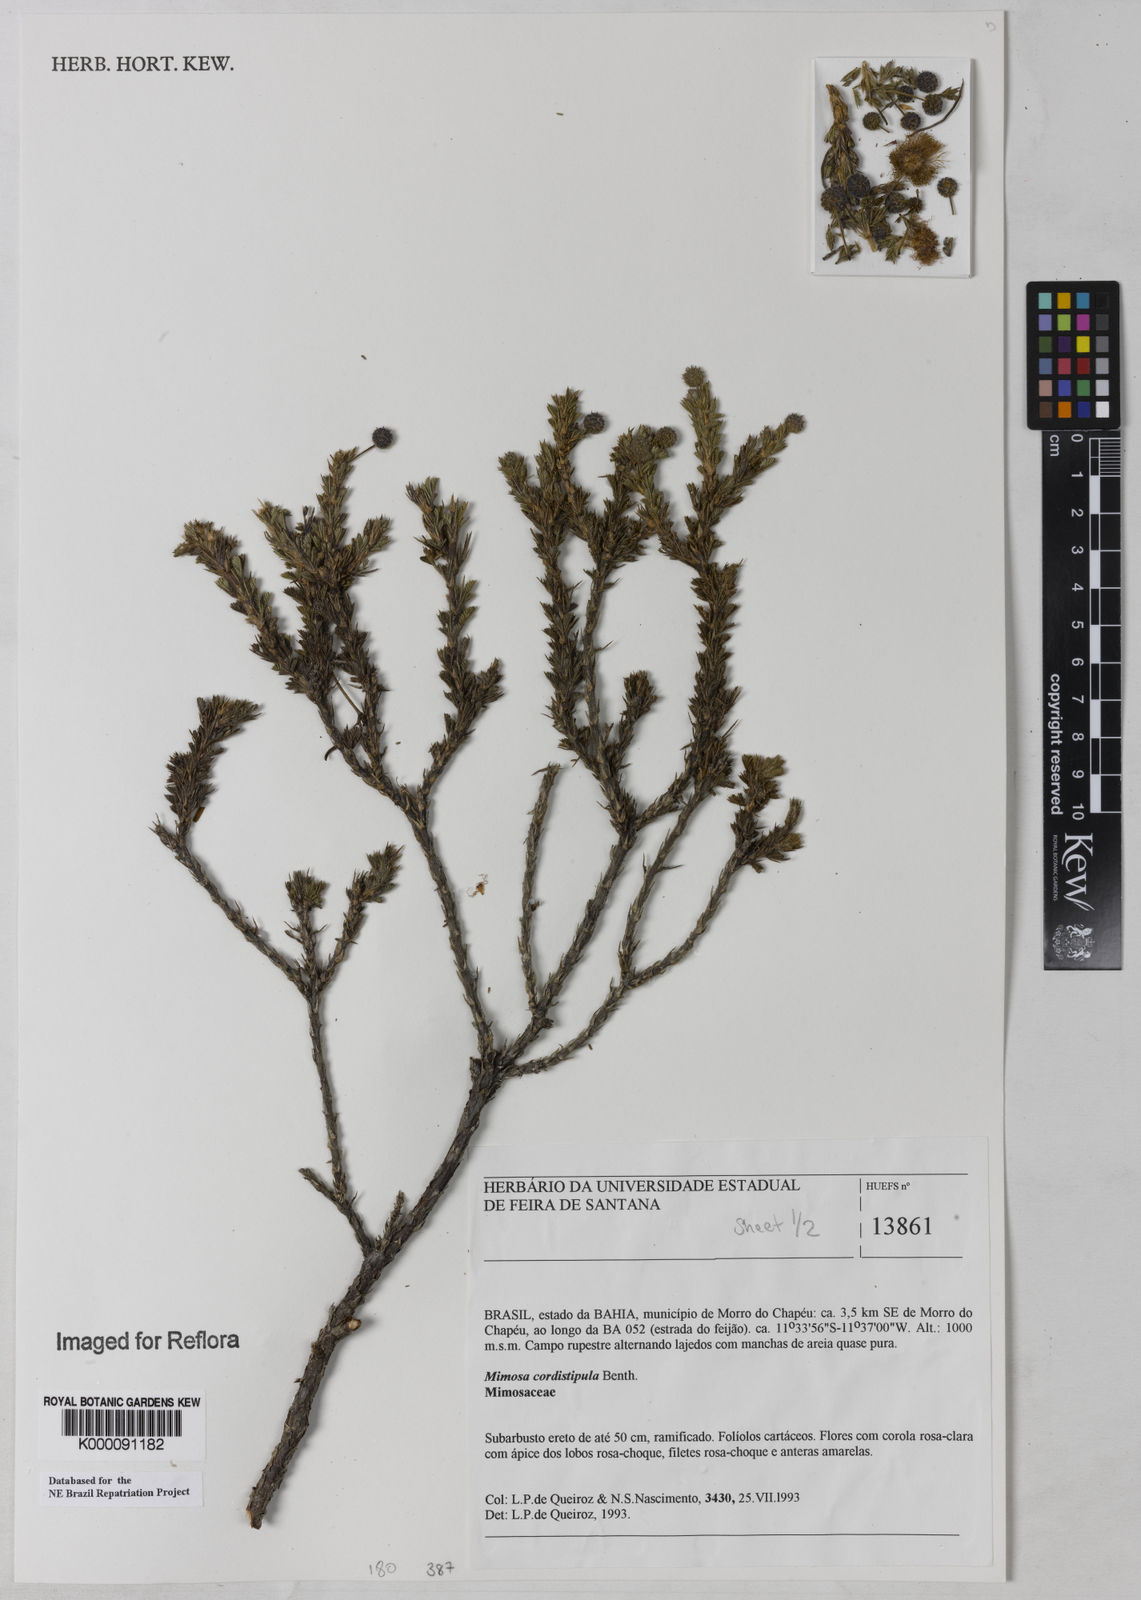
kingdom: Plantae
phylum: Tracheophyta
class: Magnoliopsida
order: Fabales
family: Fabaceae
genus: Mimosa
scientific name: Mimosa cordistipula
